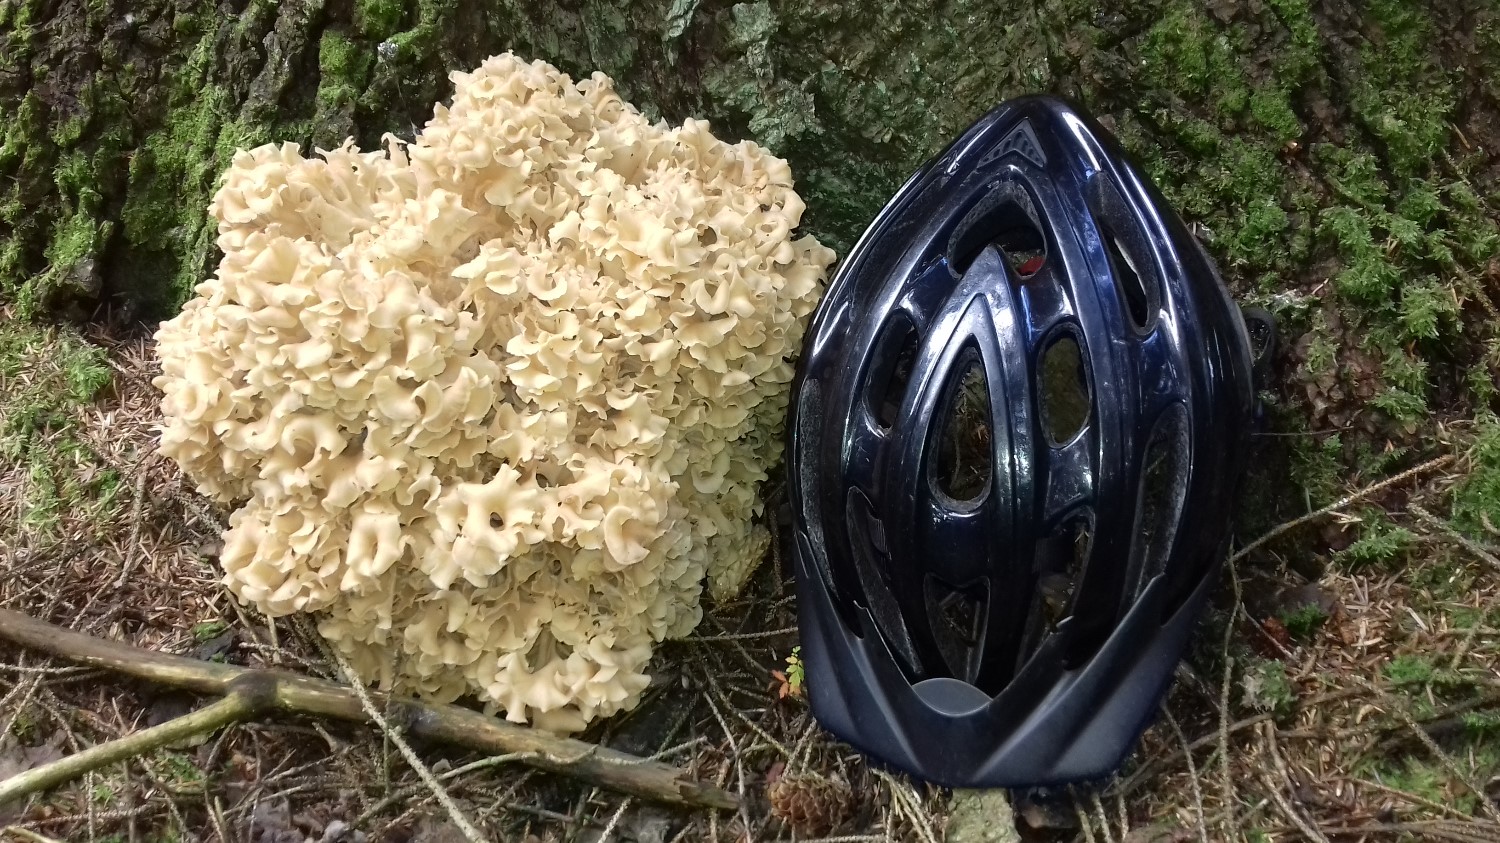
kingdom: Fungi
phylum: Basidiomycota
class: Agaricomycetes
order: Polyporales
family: Sparassidaceae
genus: Sparassis
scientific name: Sparassis crispa
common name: kruset blomkålssvamp
